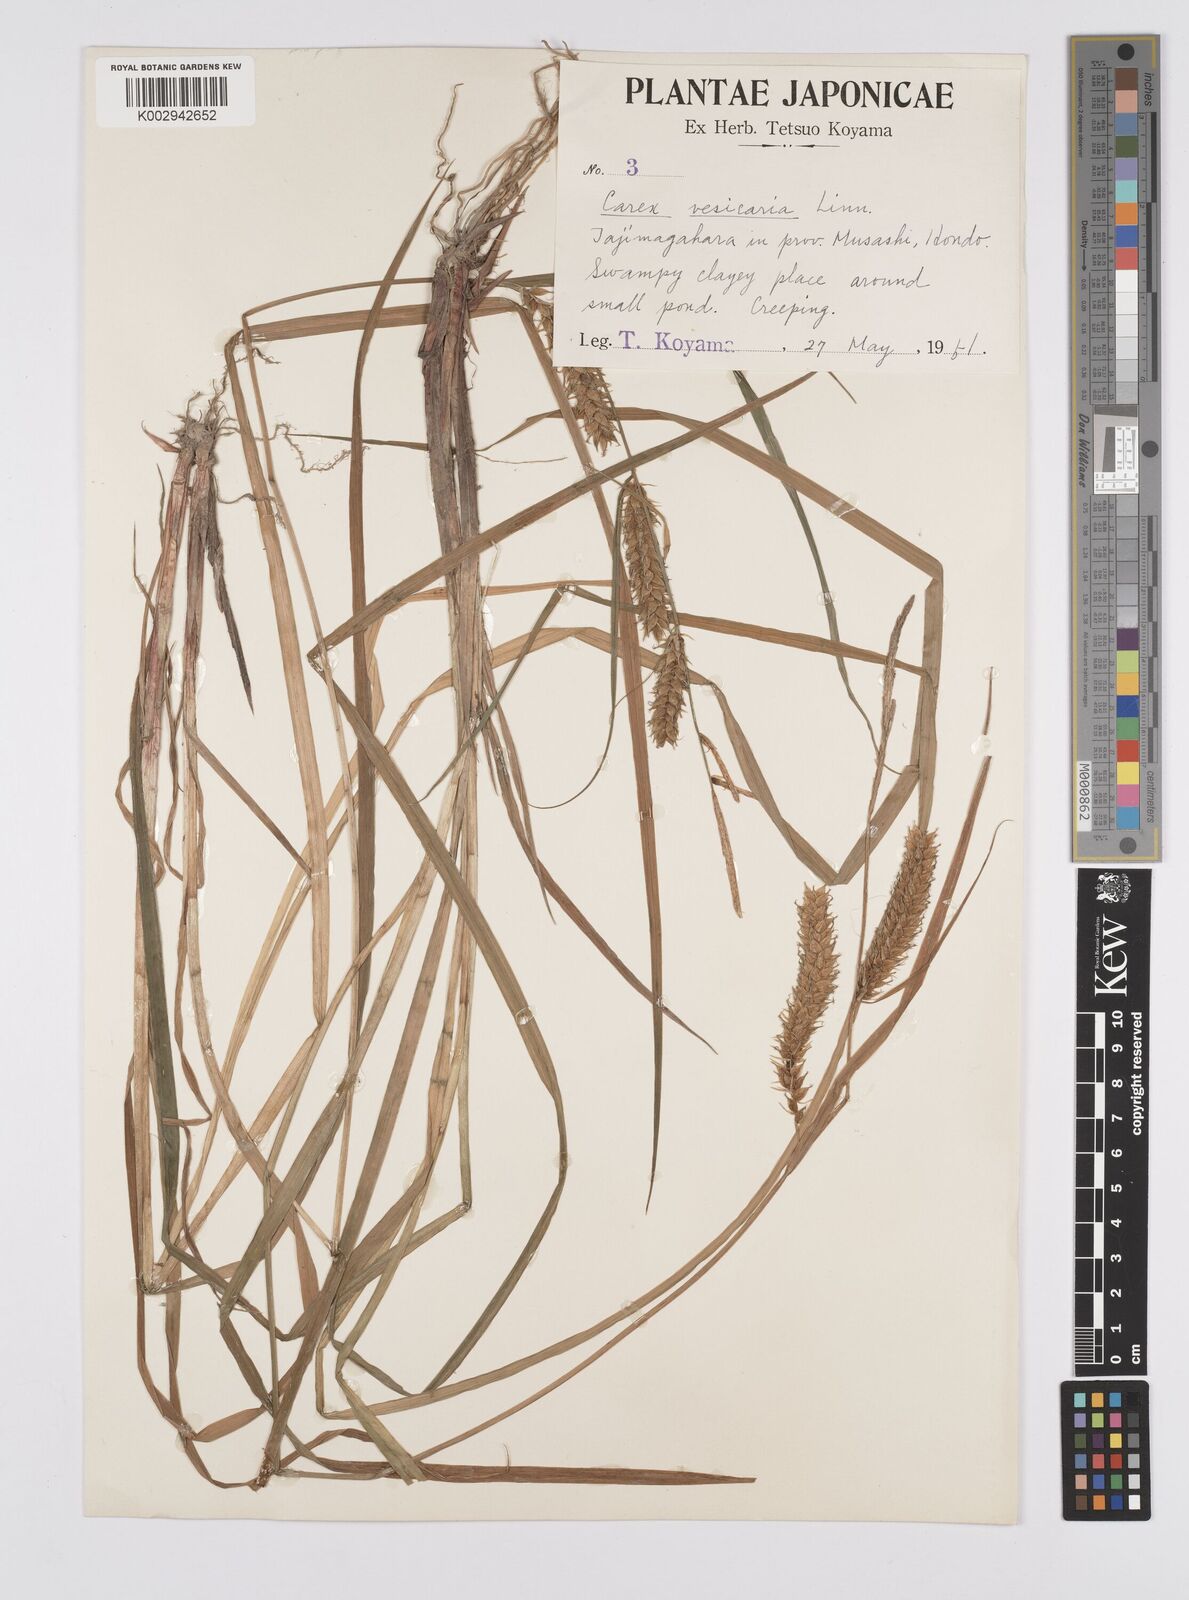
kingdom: Plantae
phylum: Tracheophyta
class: Liliopsida
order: Poales
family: Cyperaceae
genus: Carex
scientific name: Carex vesicaria
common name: Bladder-sedge
